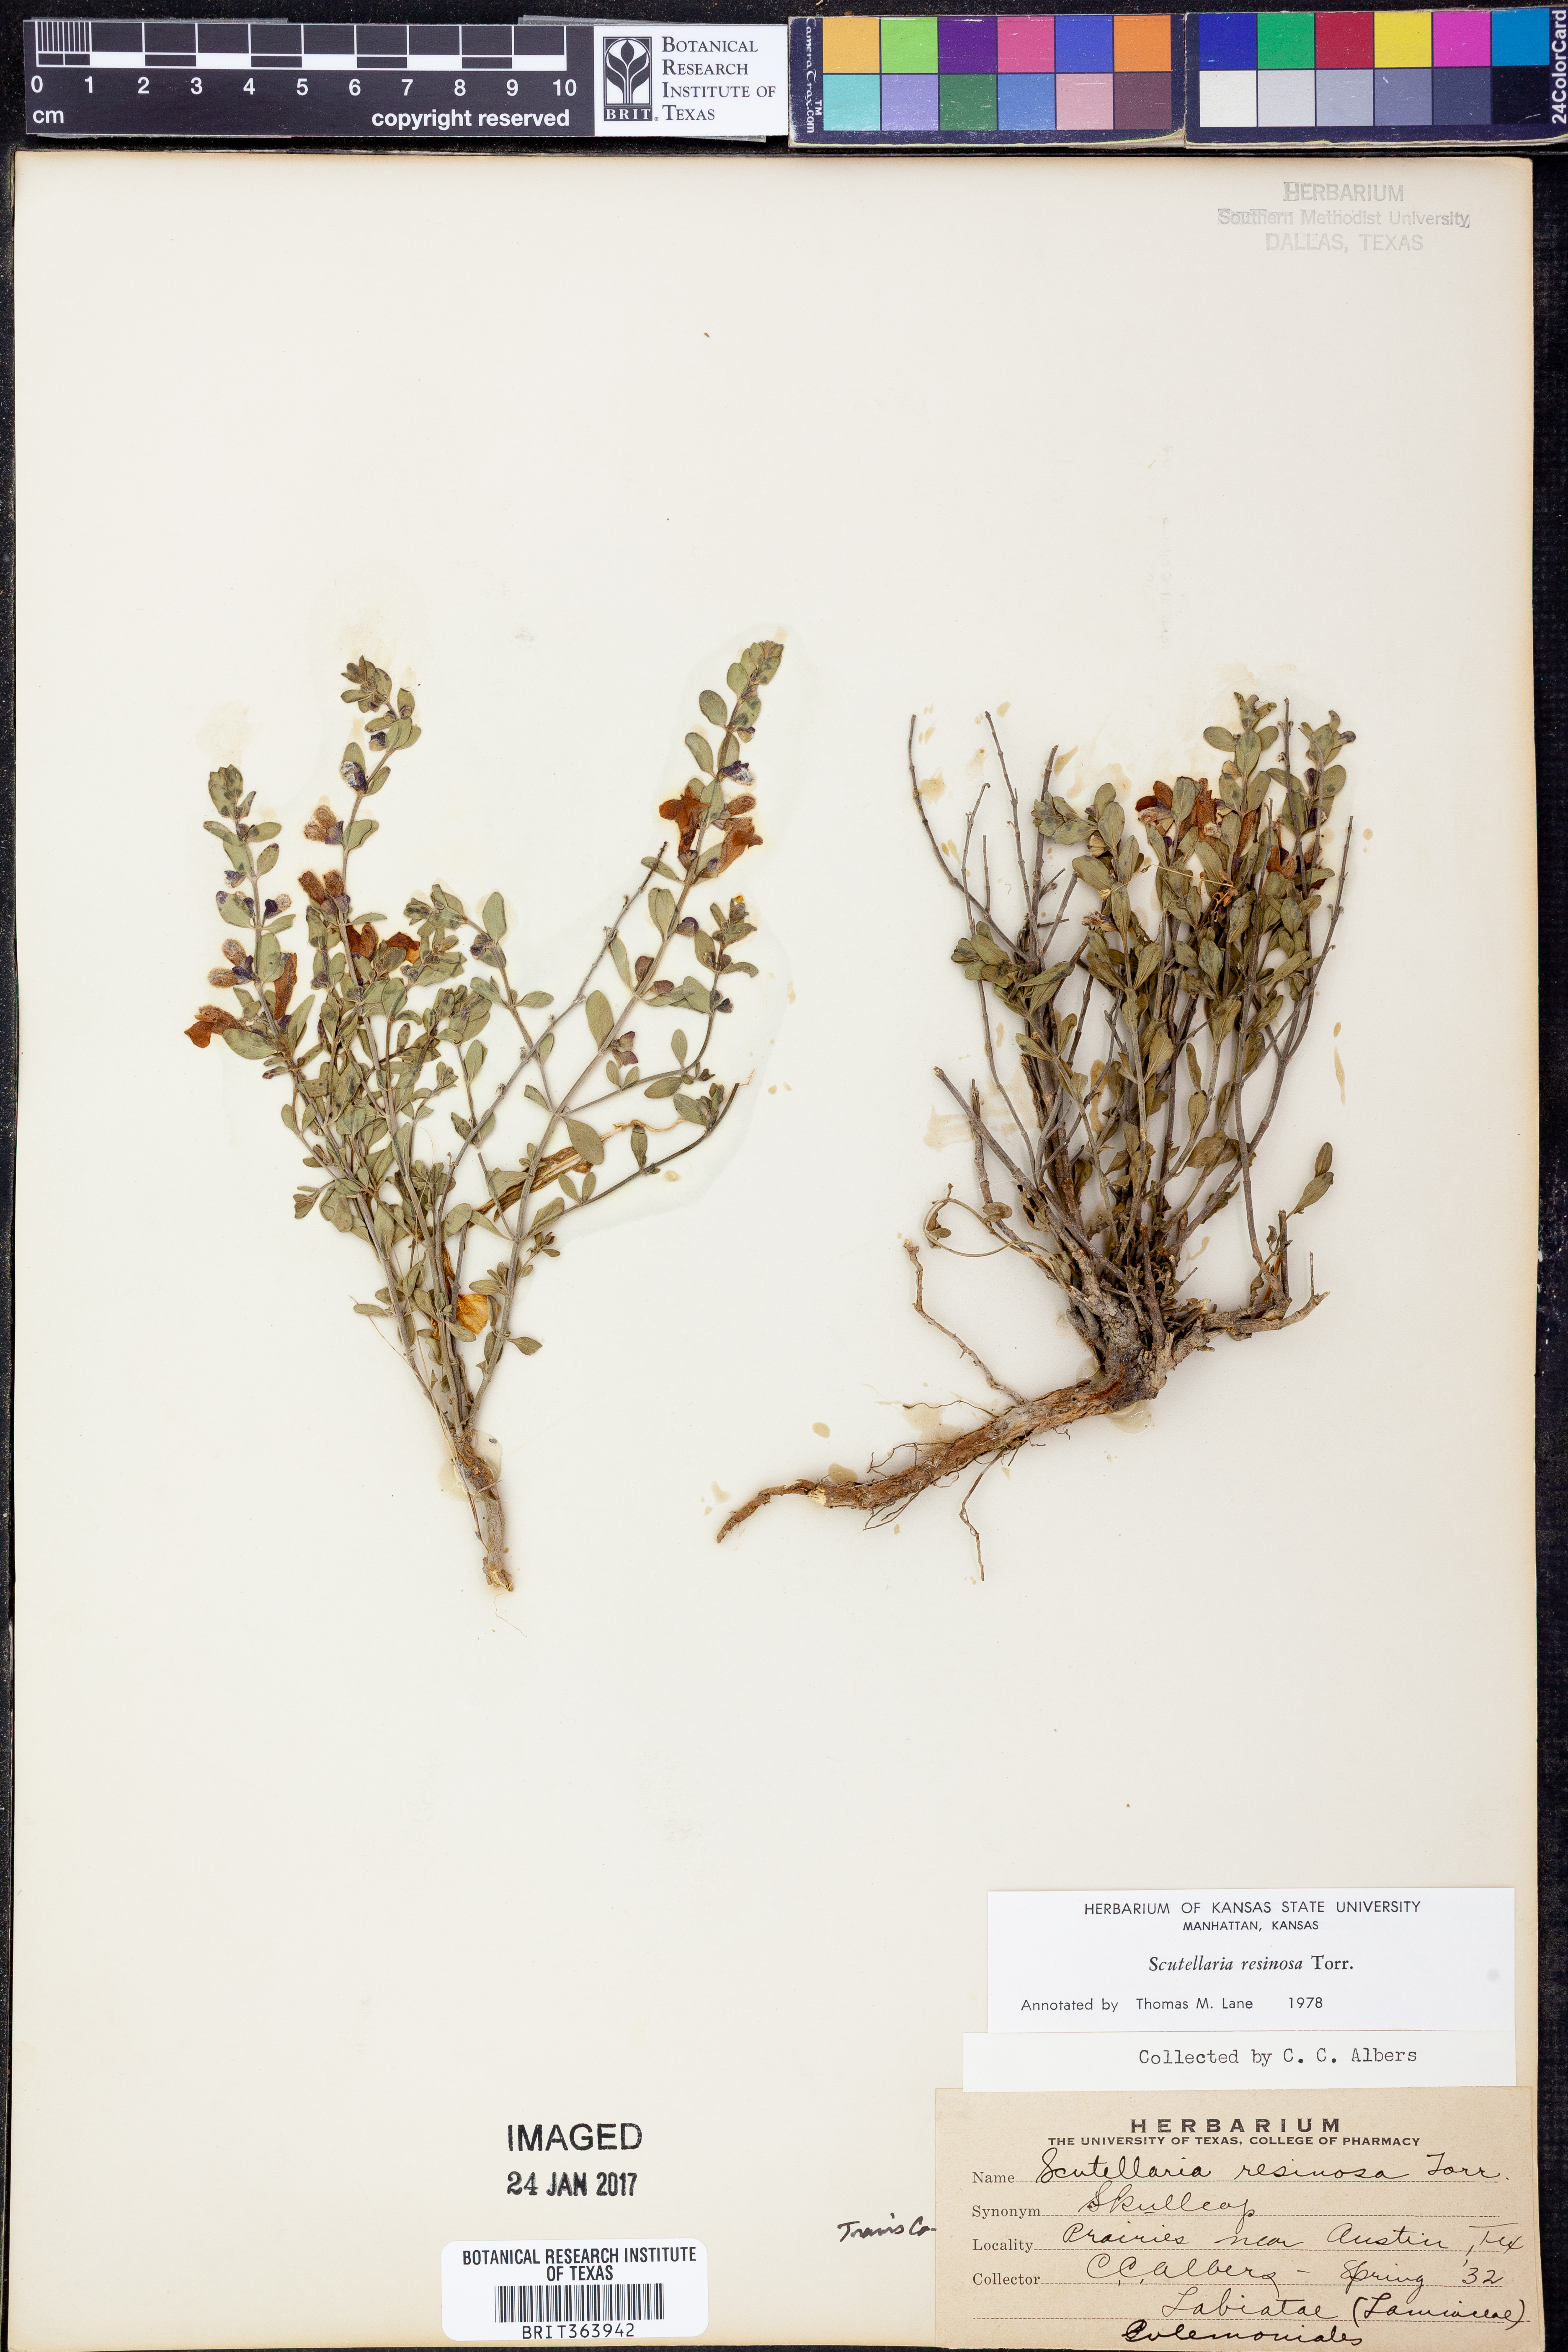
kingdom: Plantae
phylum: Tracheophyta
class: Magnoliopsida
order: Lamiales
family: Lamiaceae
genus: Scutellaria
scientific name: Scutellaria resinosa
